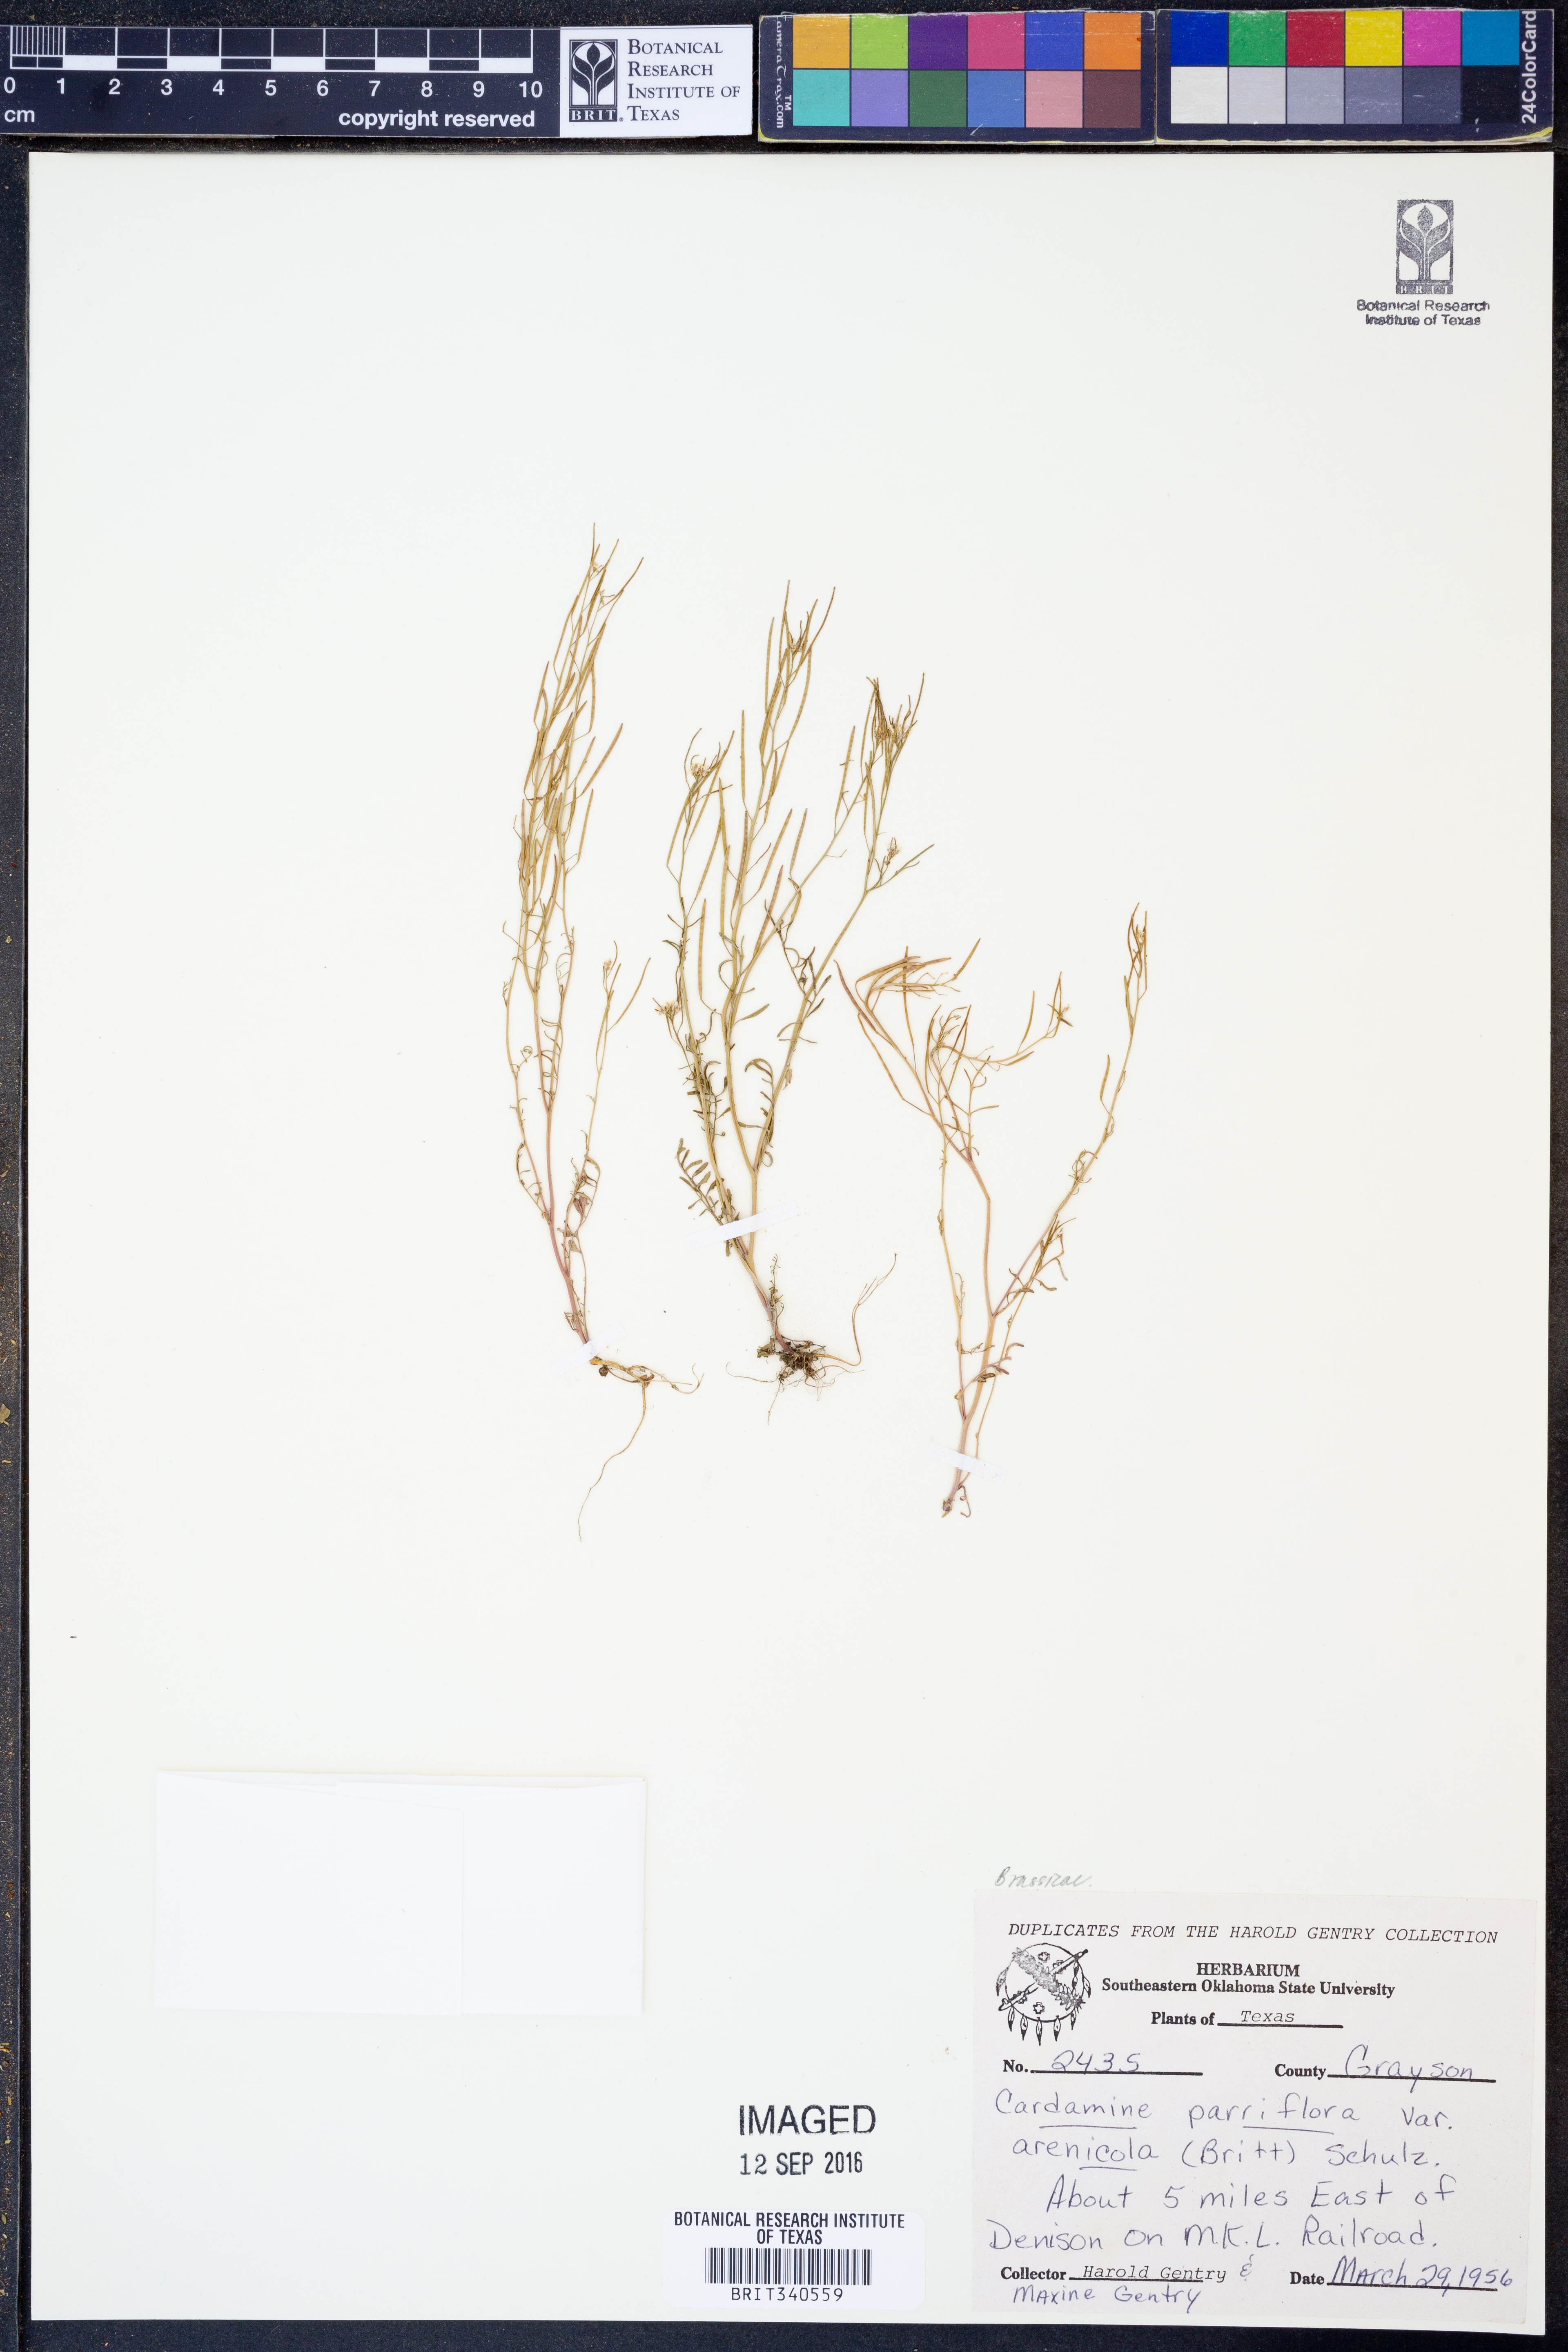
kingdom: Plantae
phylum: Tracheophyta
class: Magnoliopsida
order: Brassicales
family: Brassicaceae
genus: Cardamine
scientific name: Cardamine parviflora
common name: Sand bittercress
